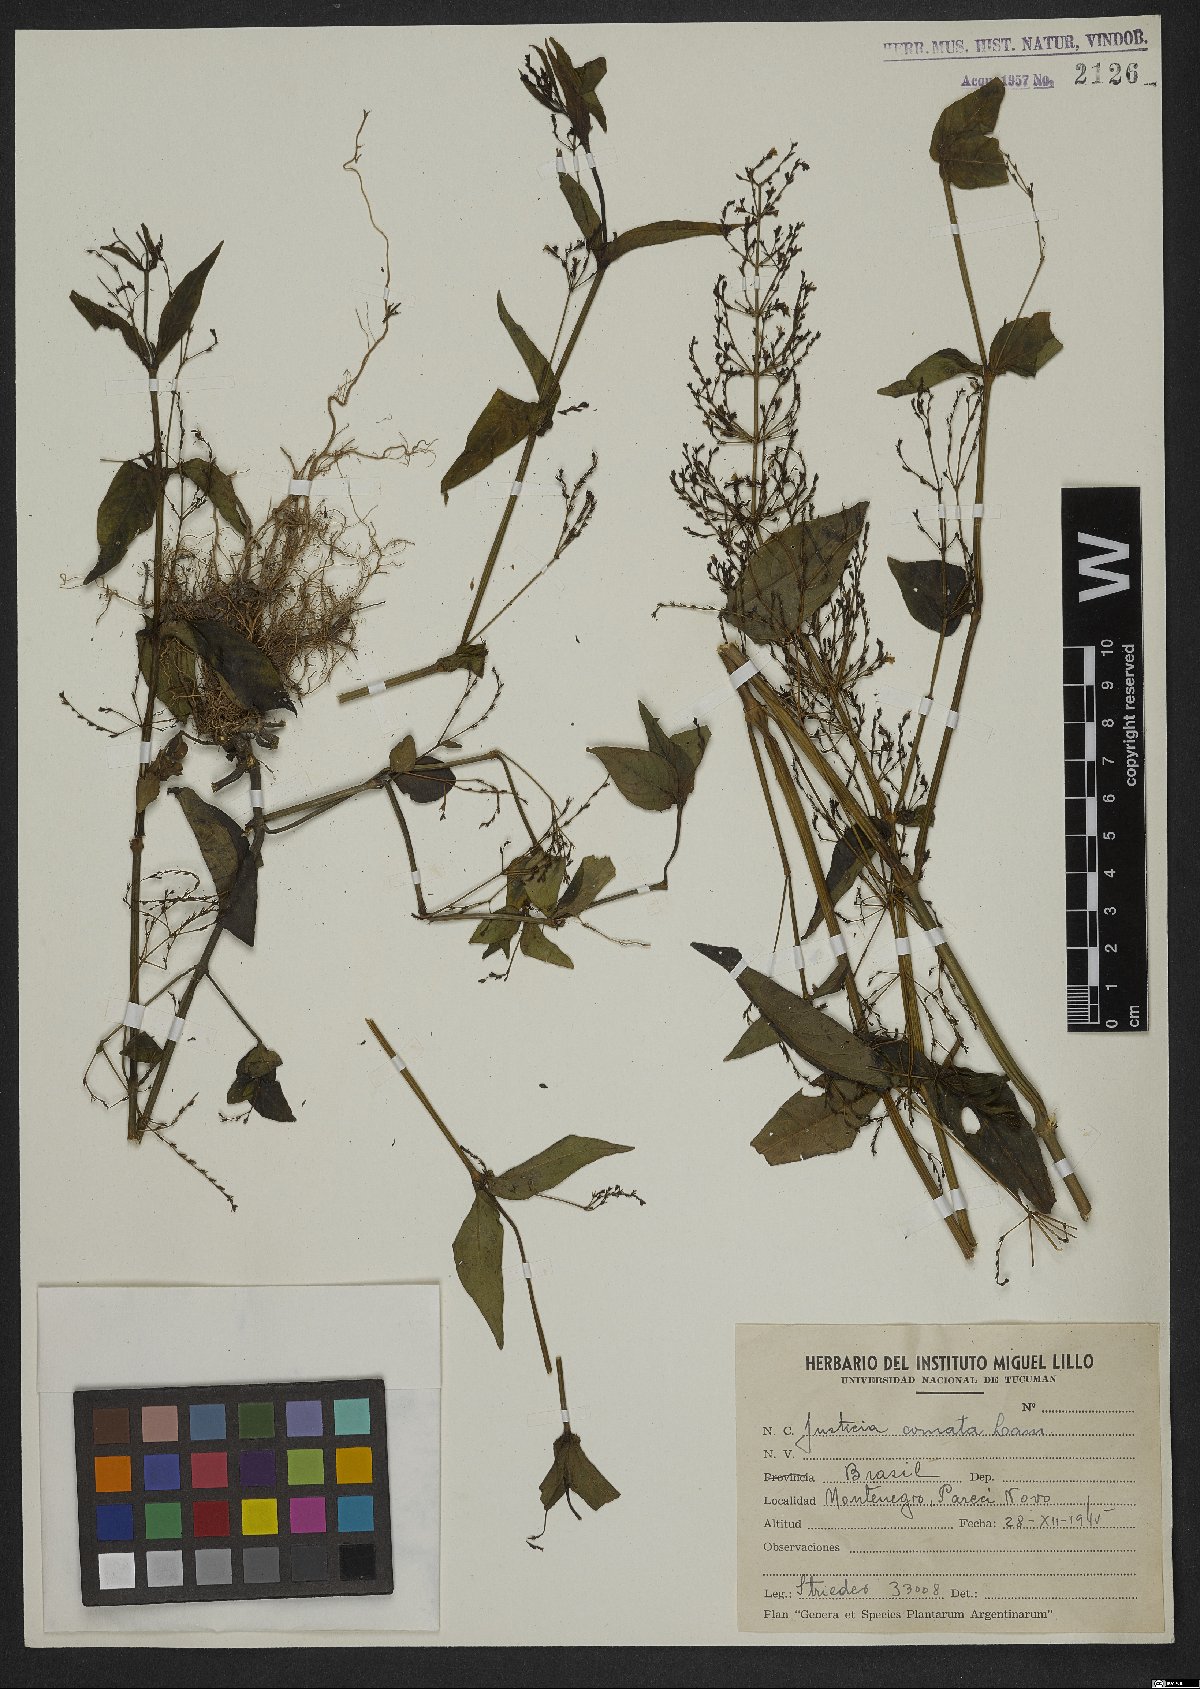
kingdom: Plantae
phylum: Tracheophyta
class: Magnoliopsida
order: Lamiales
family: Acanthaceae
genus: Dianthera
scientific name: Dianthera comata
